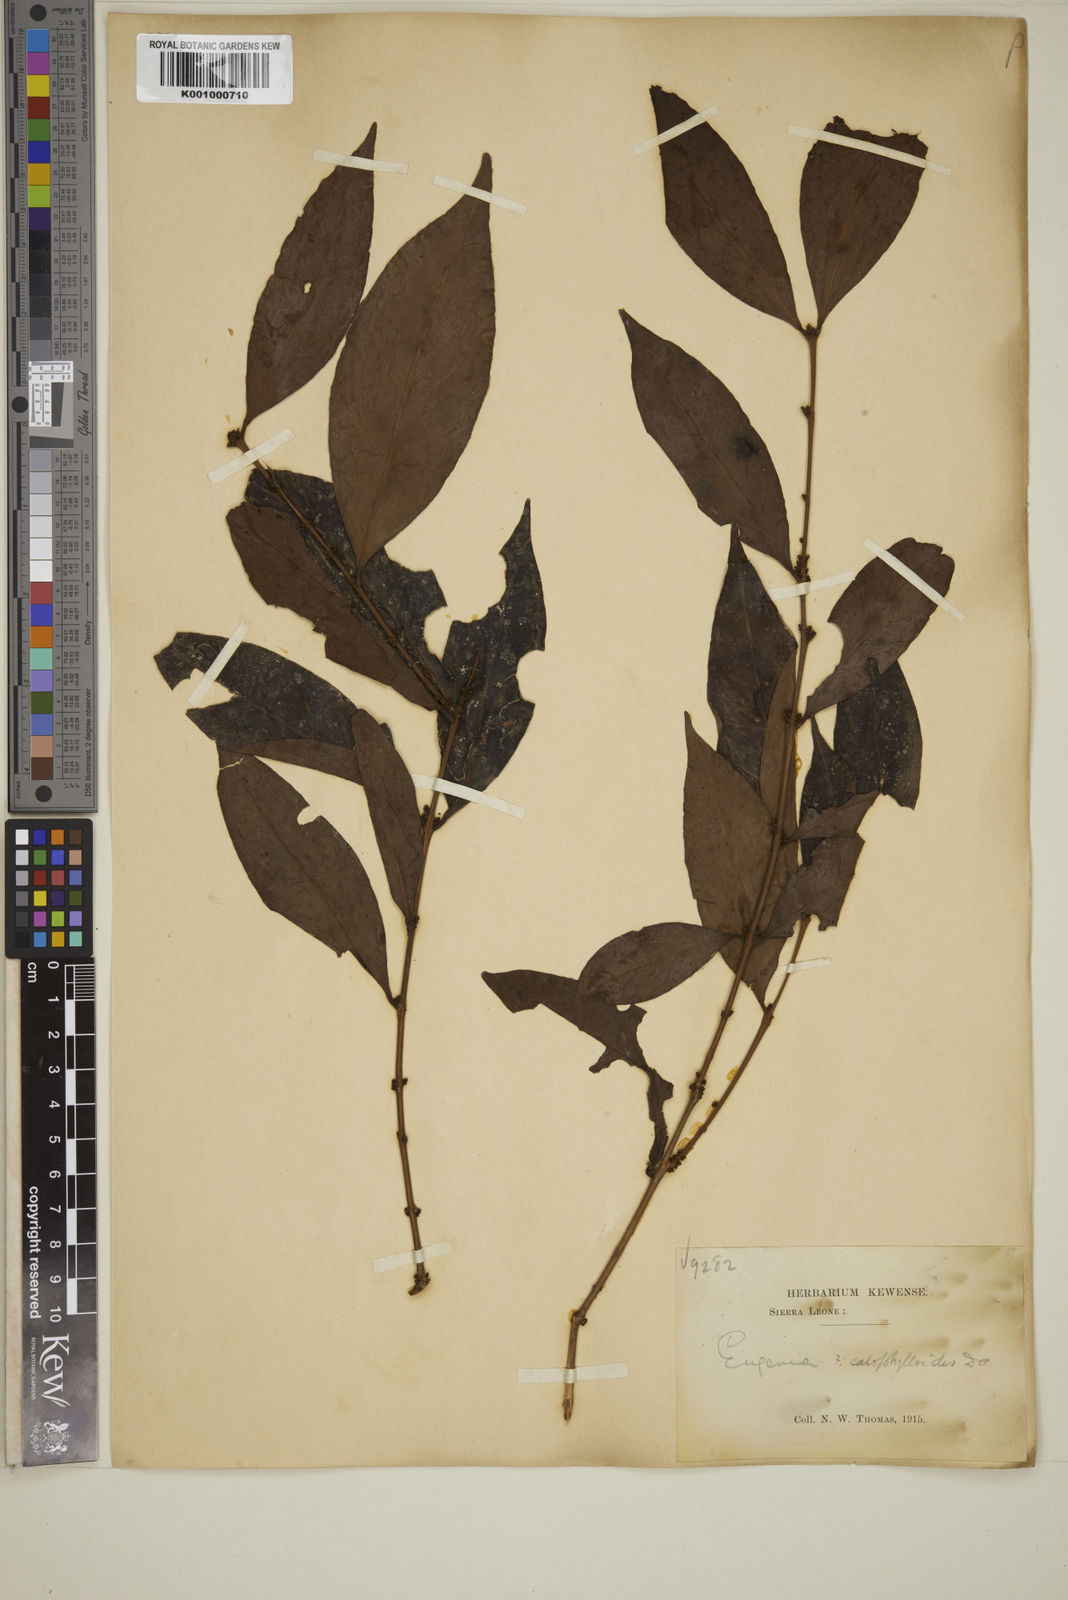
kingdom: Plantae
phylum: Tracheophyta
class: Magnoliopsida
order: Myrtales
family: Myrtaceae
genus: Eugenia
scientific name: Eugenia calophylloides
